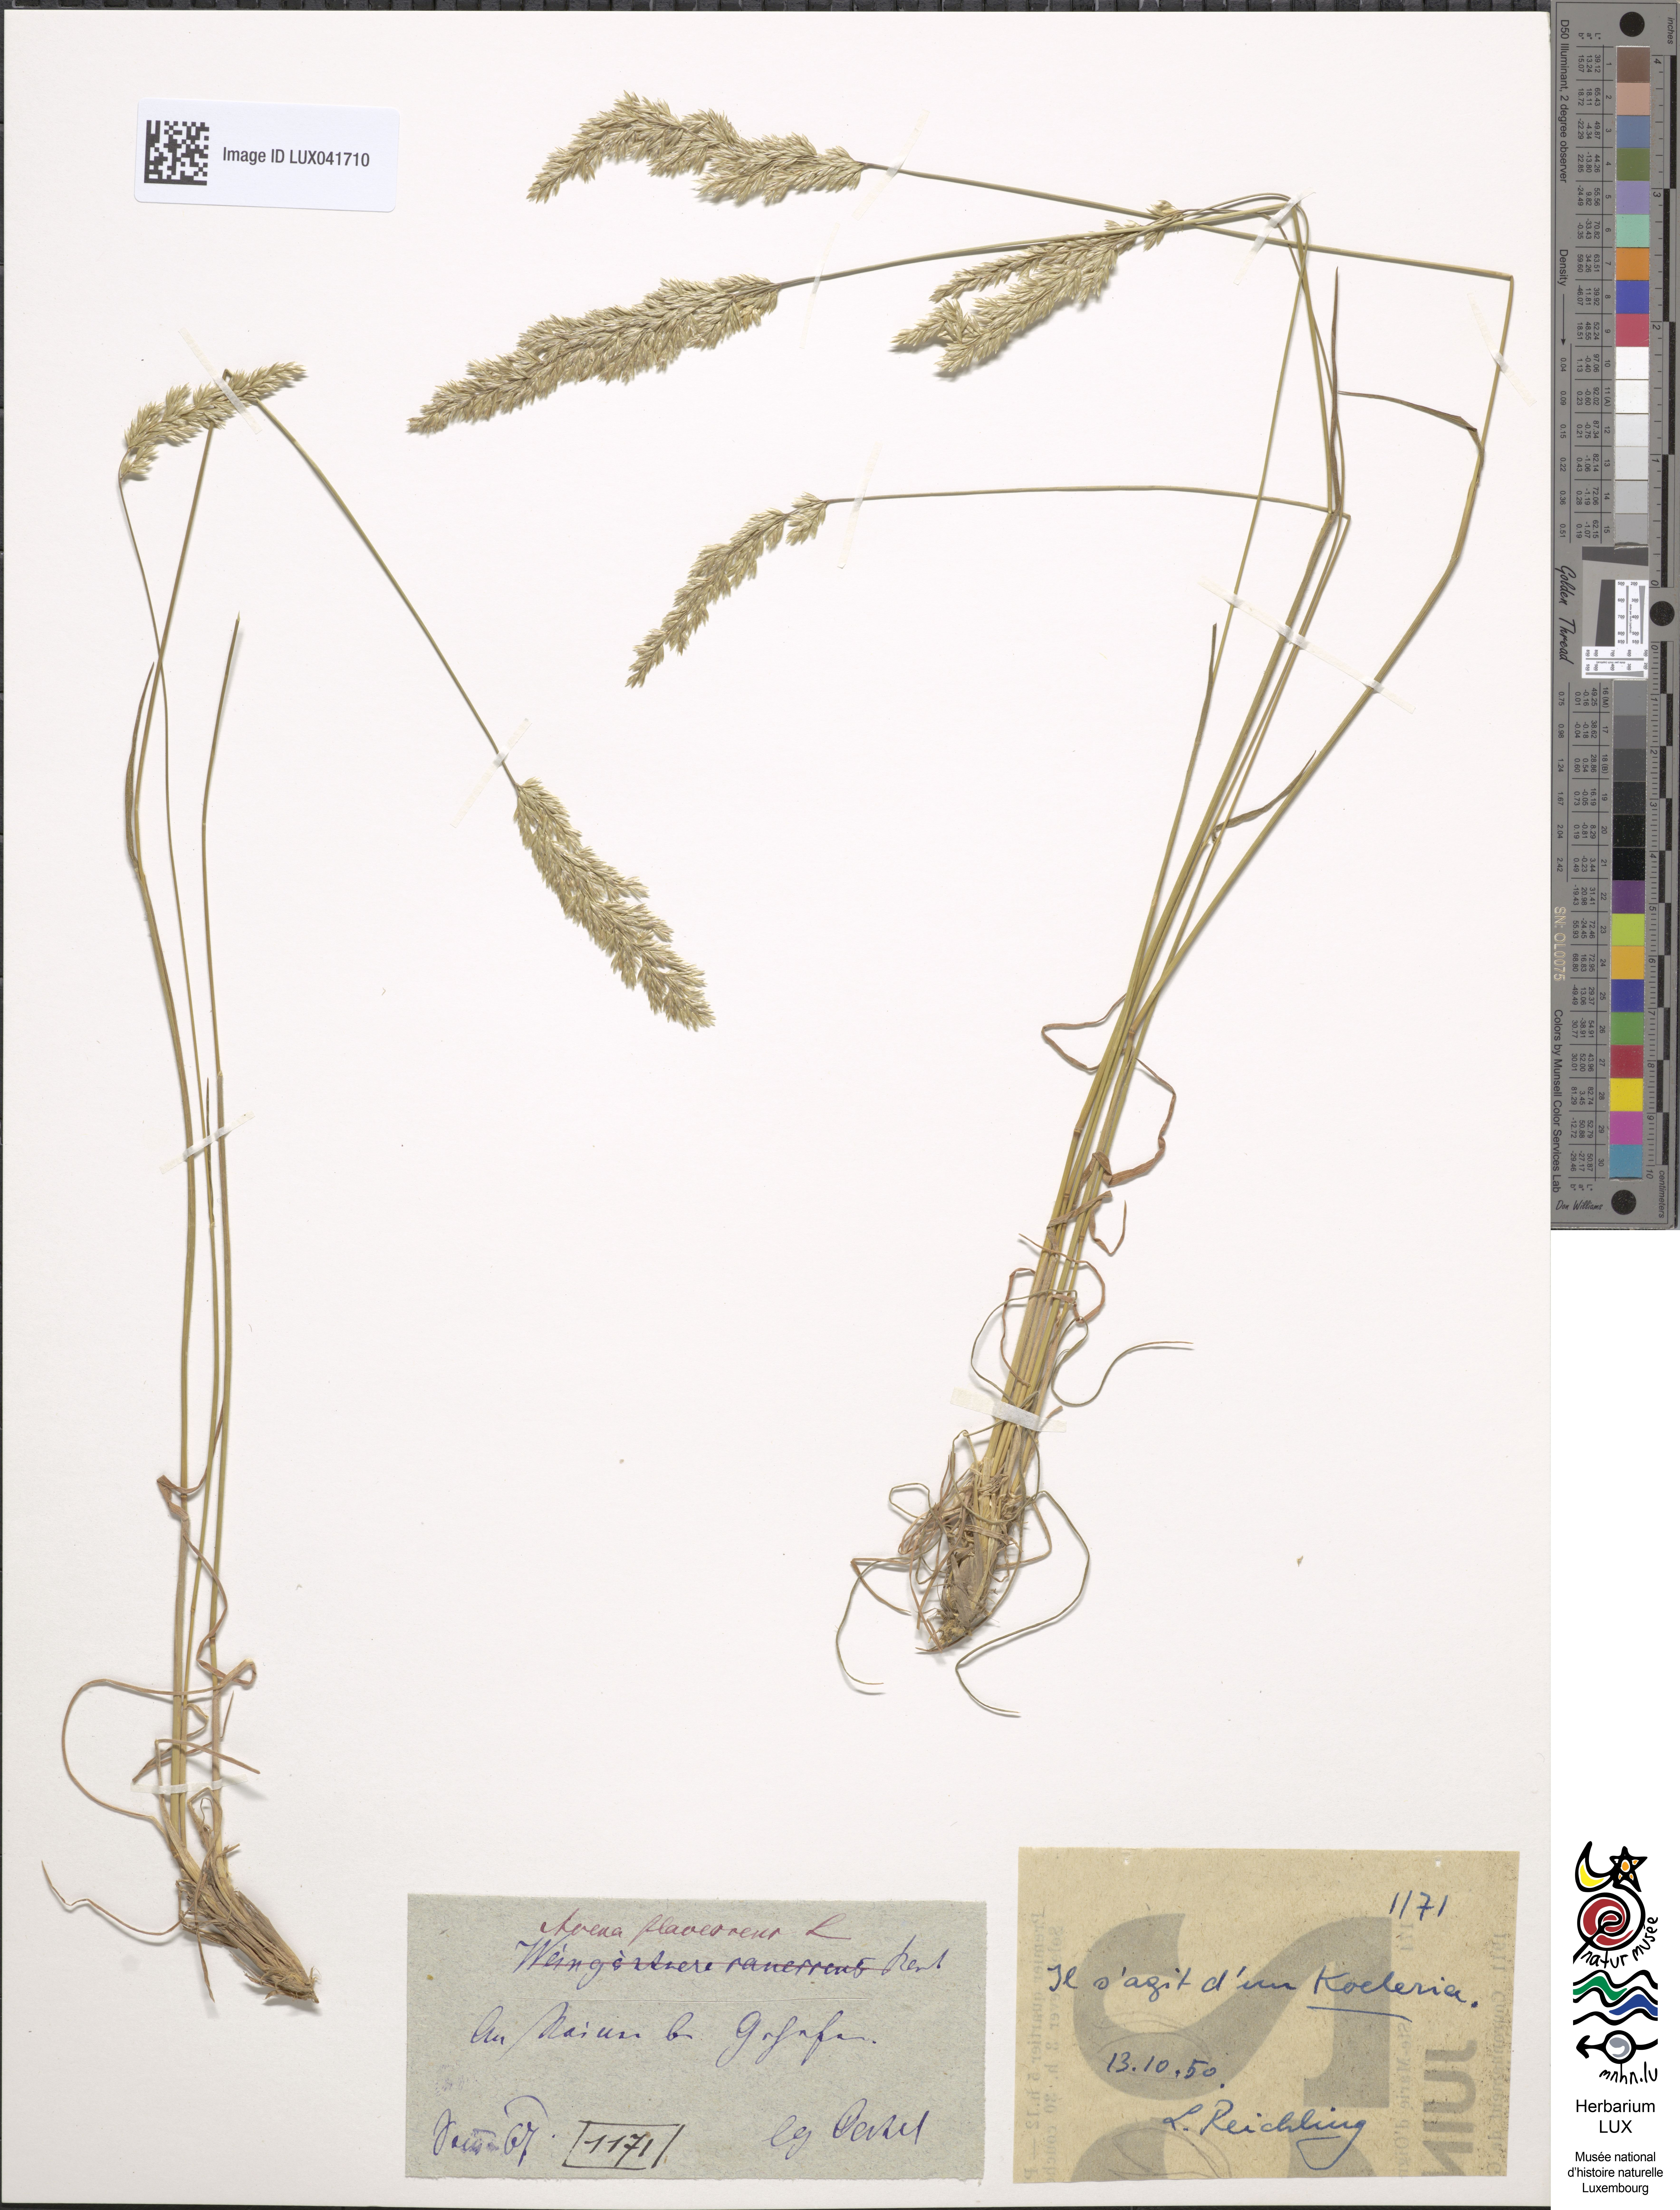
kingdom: Plantae
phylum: Tracheophyta
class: Liliopsida
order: Poales
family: Poaceae
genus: Trisetum
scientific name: Trisetum flavescens
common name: Yellow oat-grass
